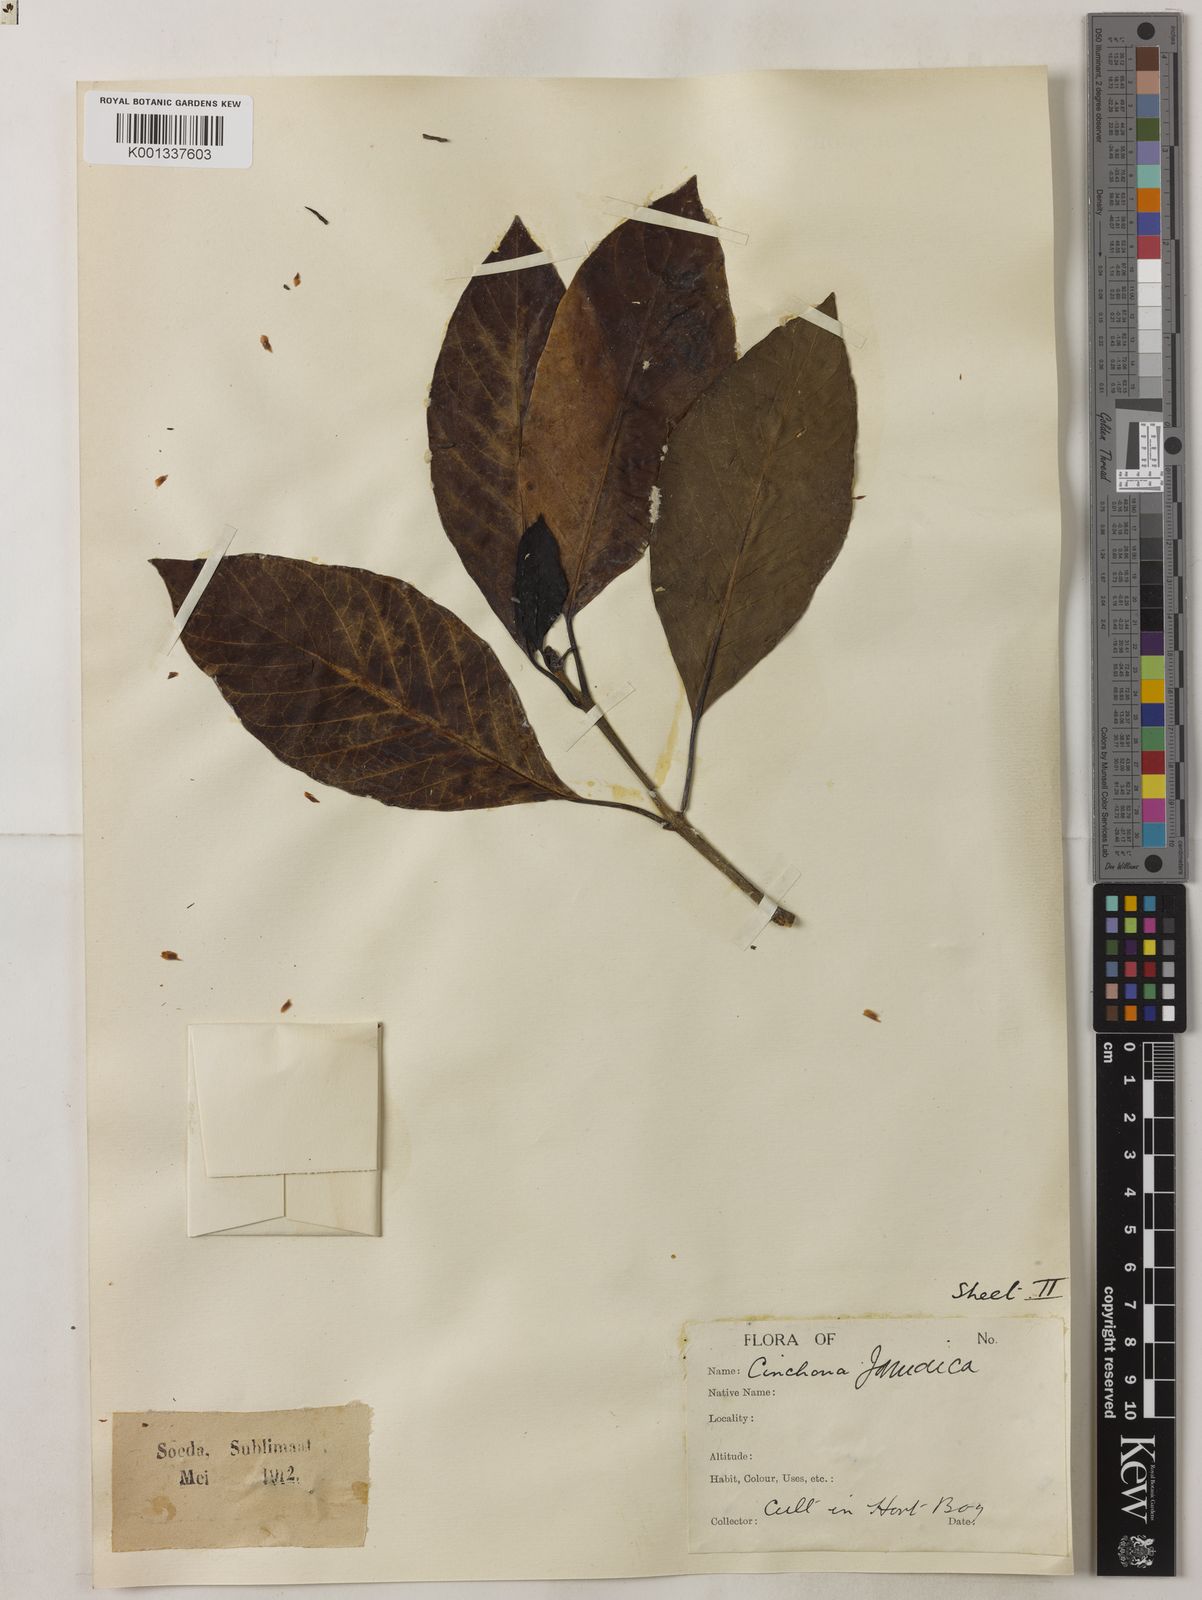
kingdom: Plantae
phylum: Tracheophyta
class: Magnoliopsida
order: Gentianales
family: Rubiaceae
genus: Exostema
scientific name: Exostema caribaeum
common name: Princewood
